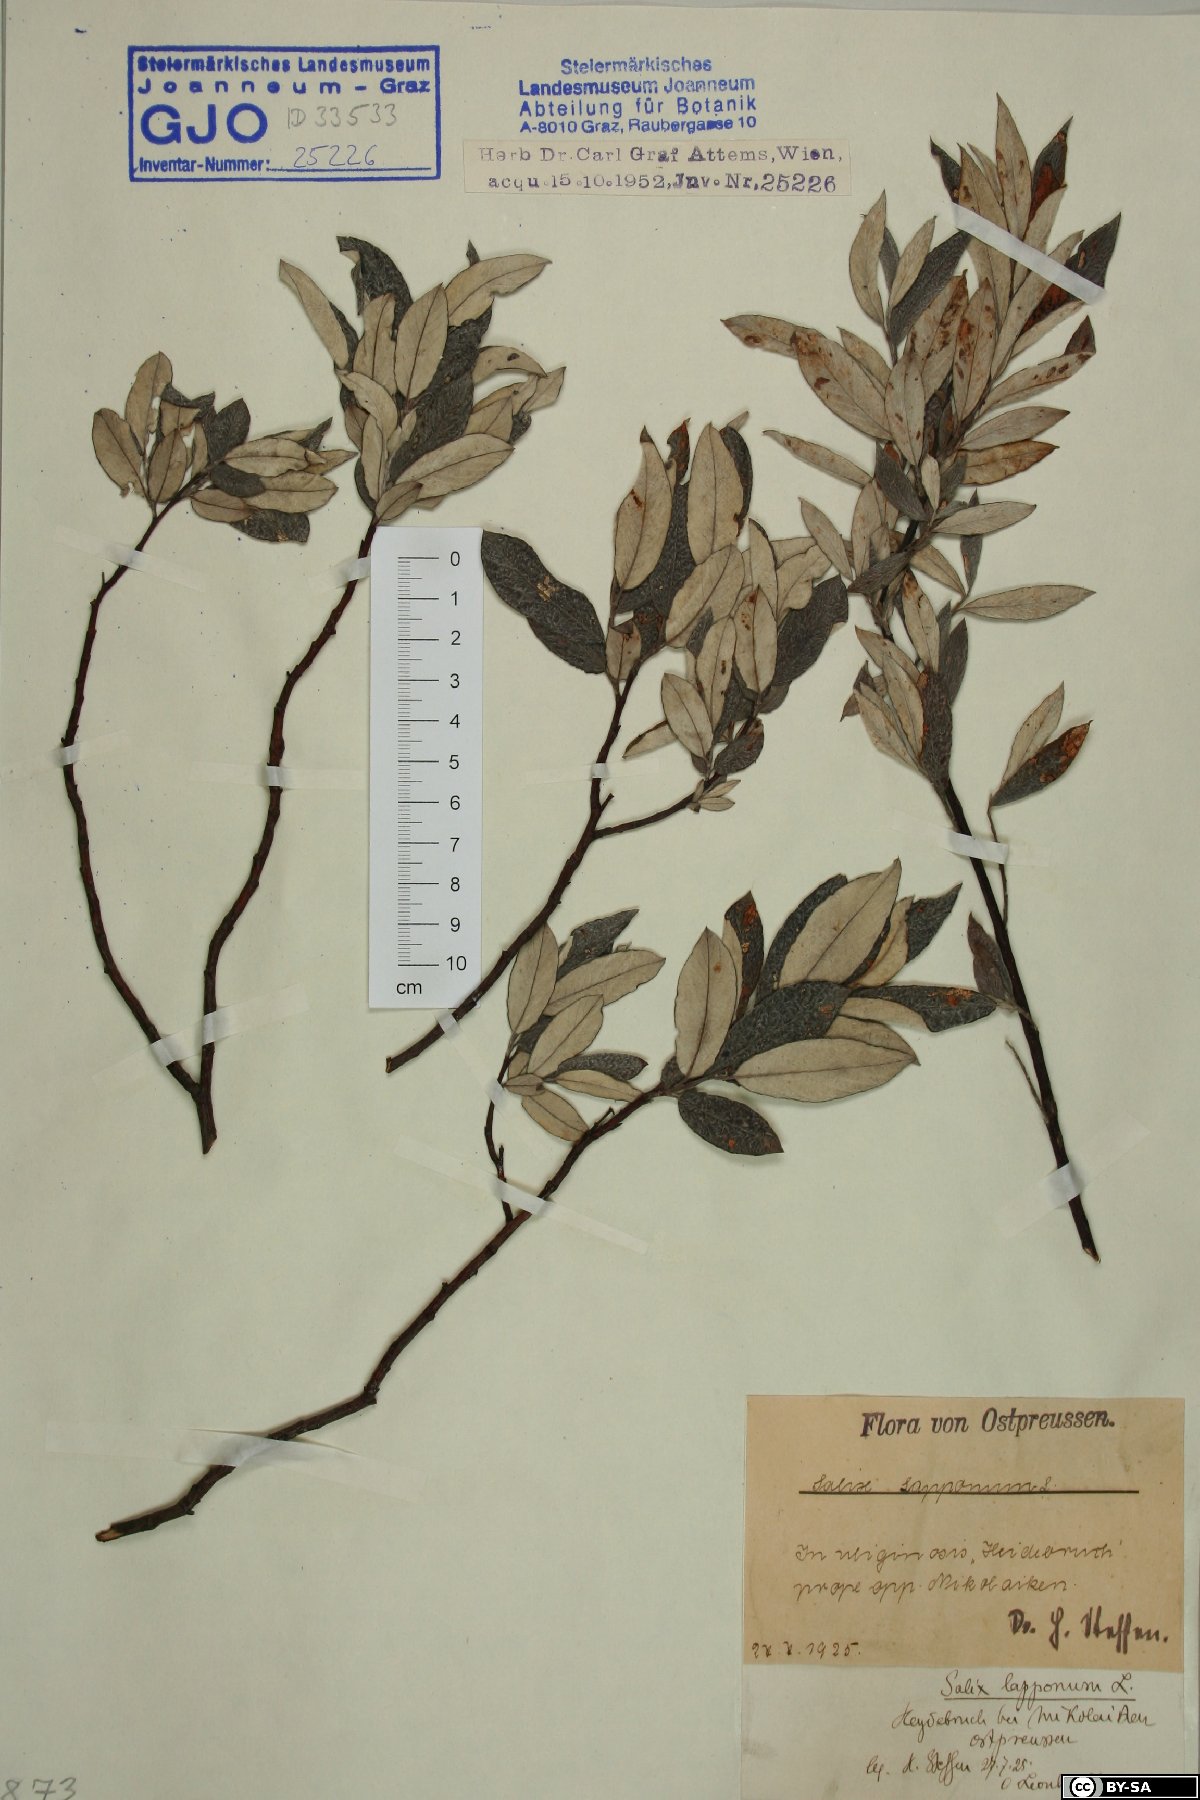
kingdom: Plantae
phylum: Tracheophyta
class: Magnoliopsida
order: Malpighiales
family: Salicaceae
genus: Salix
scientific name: Salix lapponum
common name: Downy willow
